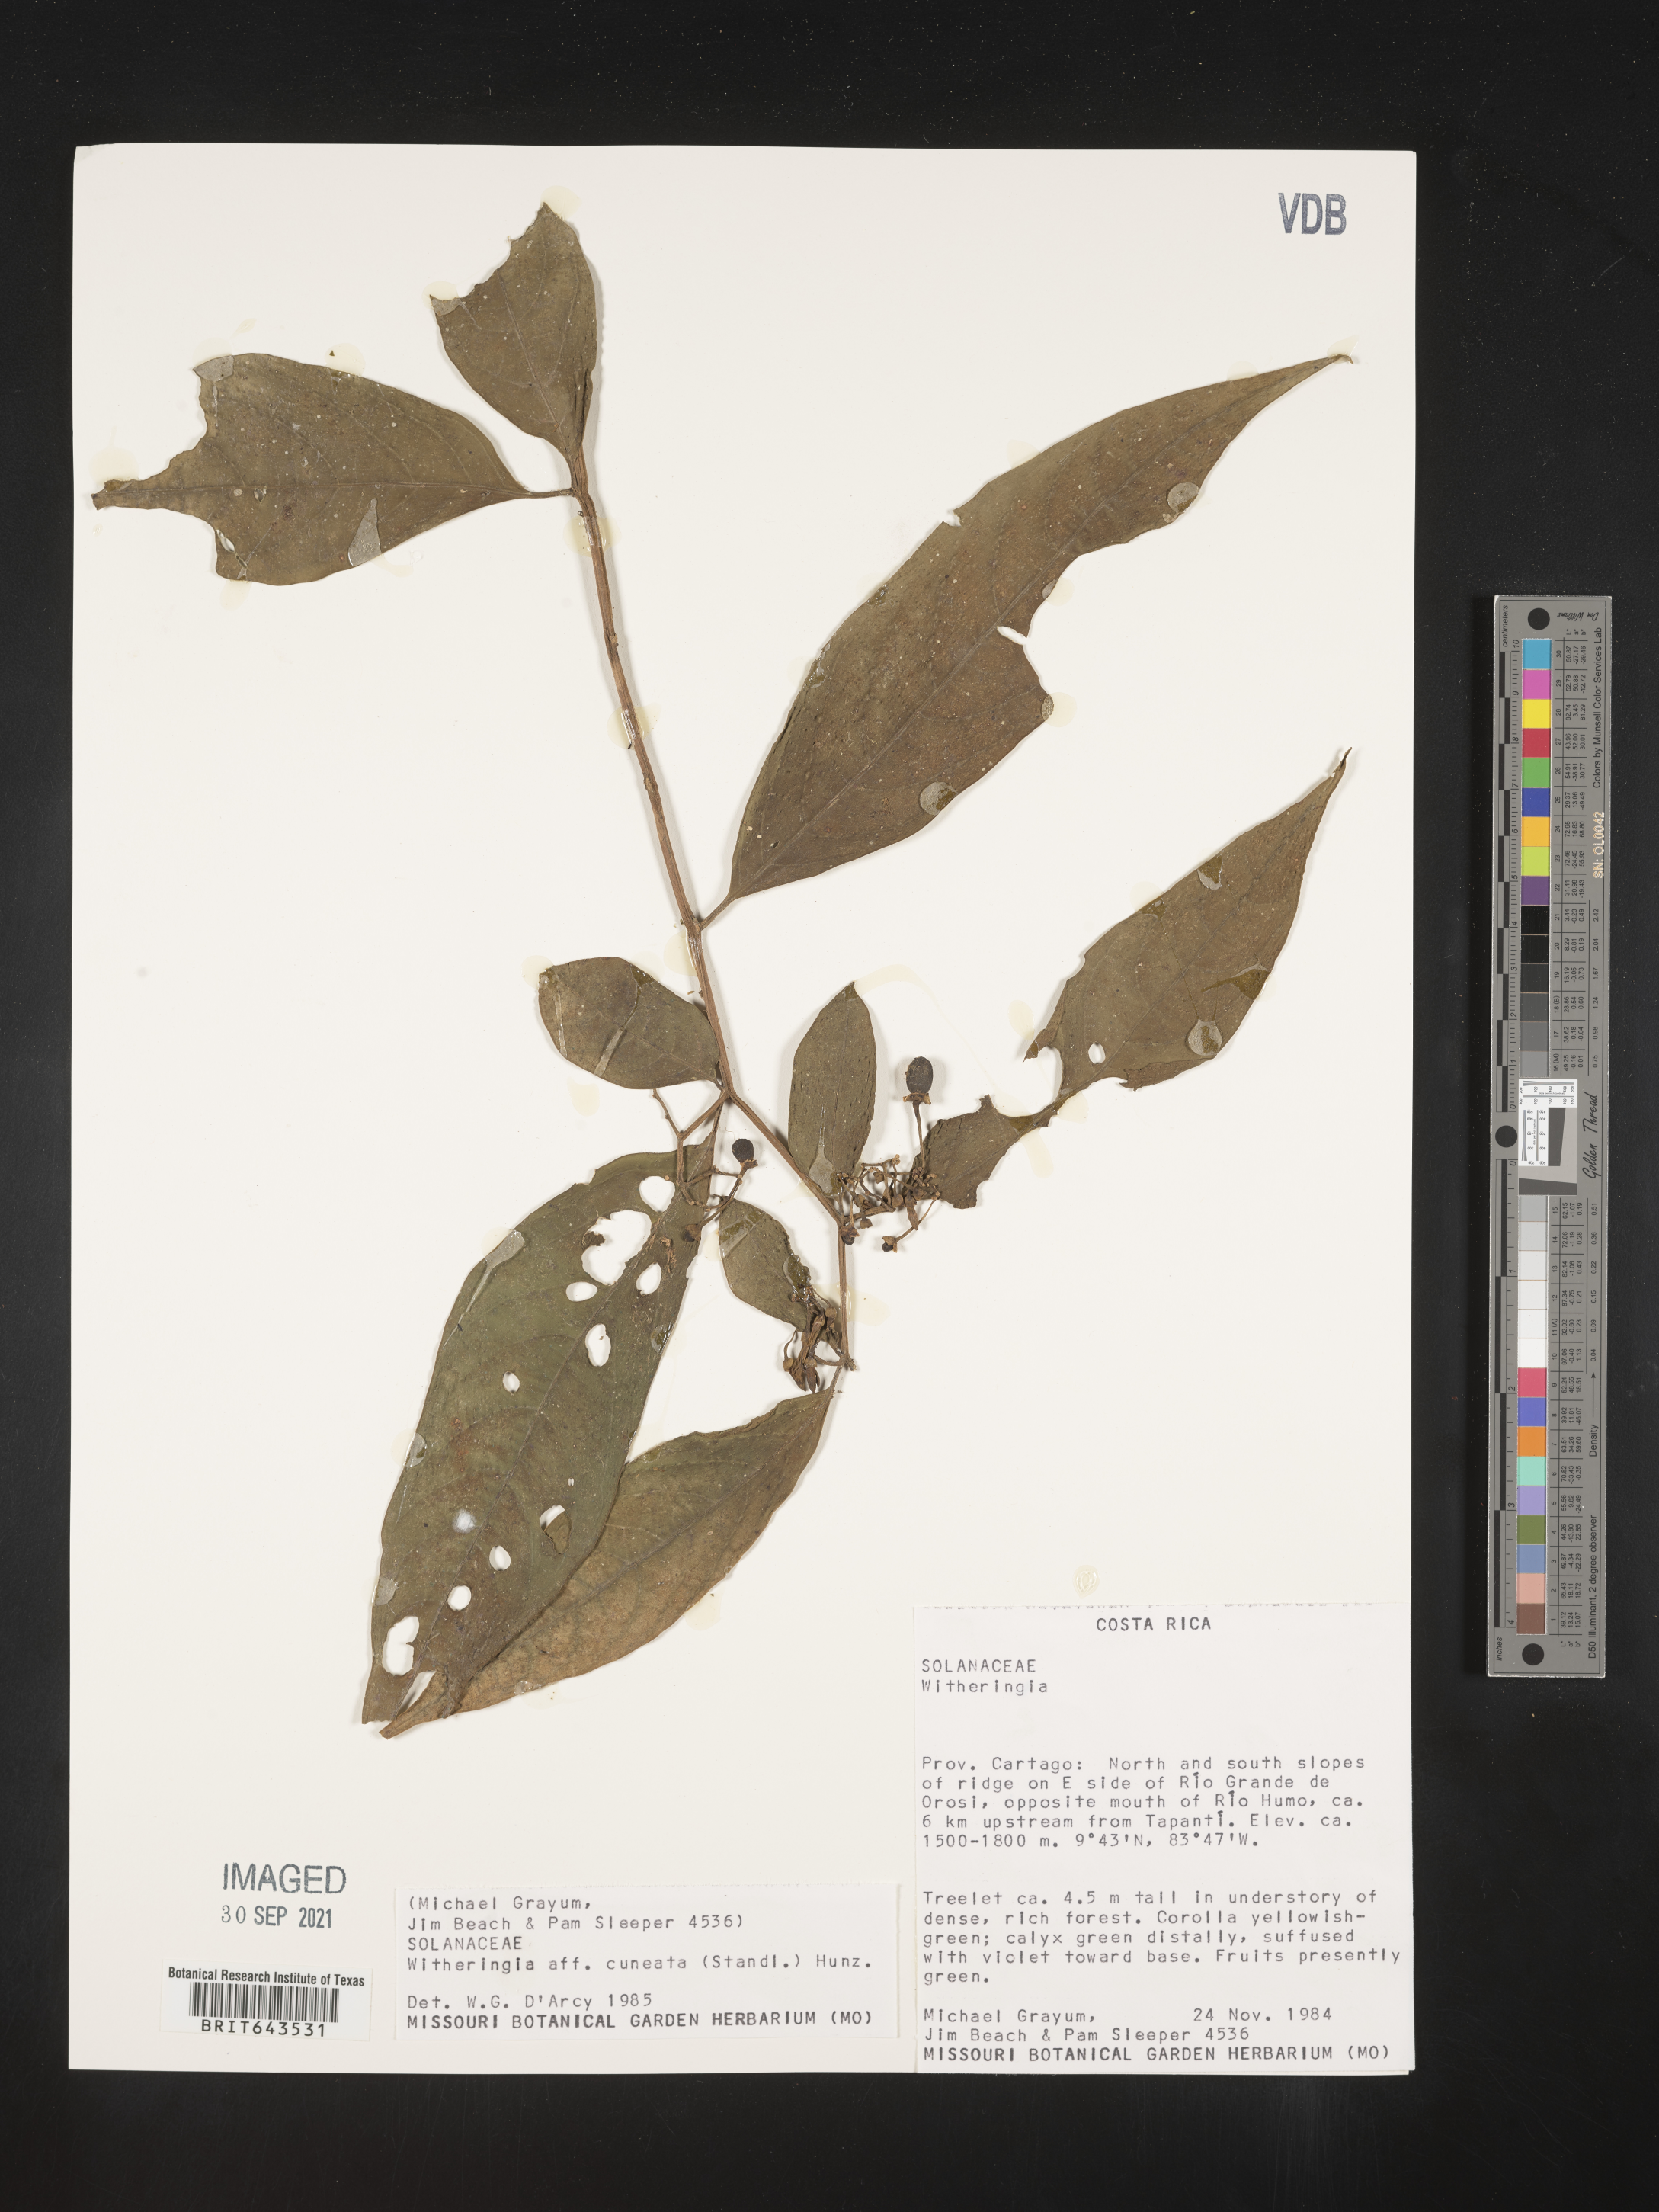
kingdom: Plantae
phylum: Tracheophyta
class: Magnoliopsida
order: Solanales
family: Solanaceae
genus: Witheringia
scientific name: Witheringia
